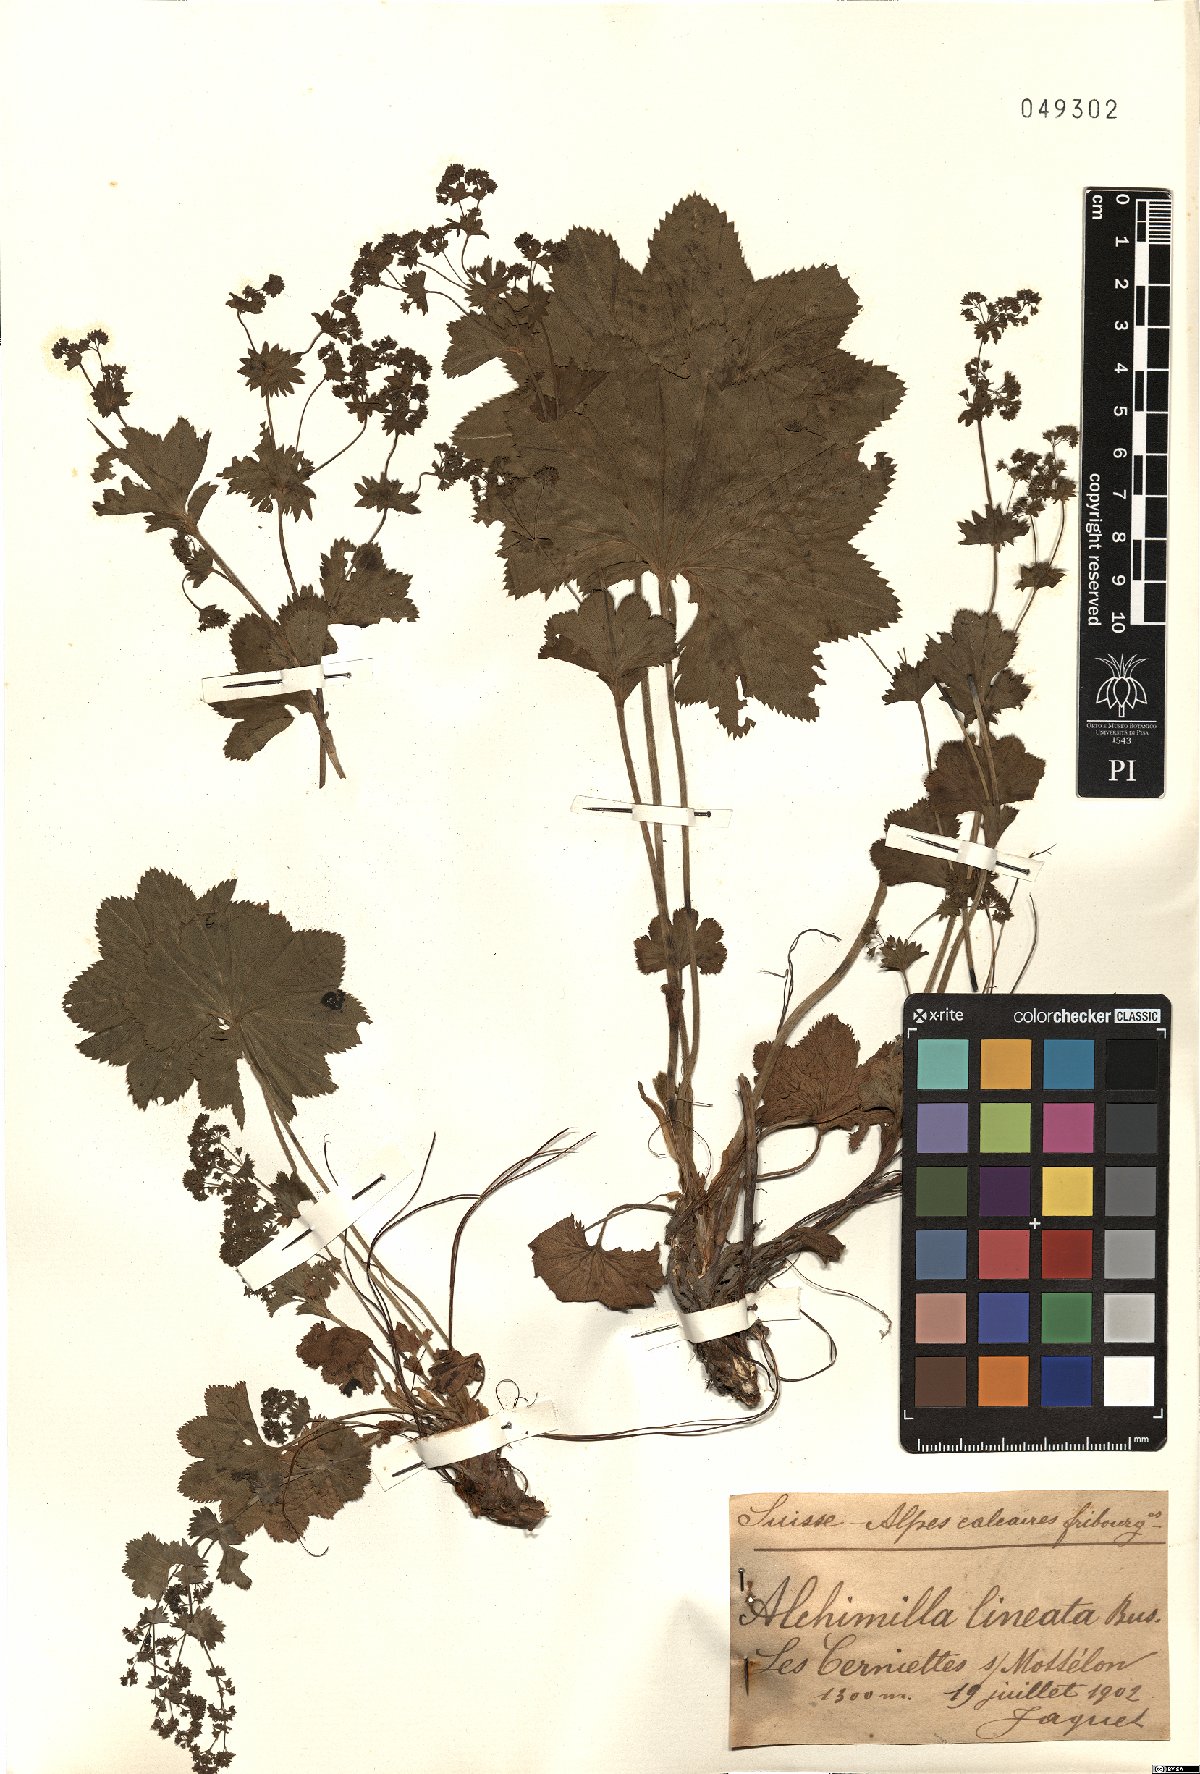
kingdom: Plantae
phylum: Tracheophyta
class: Magnoliopsida
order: Rosales
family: Rosaceae
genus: Alchemilla
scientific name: Alchemilla lineata
